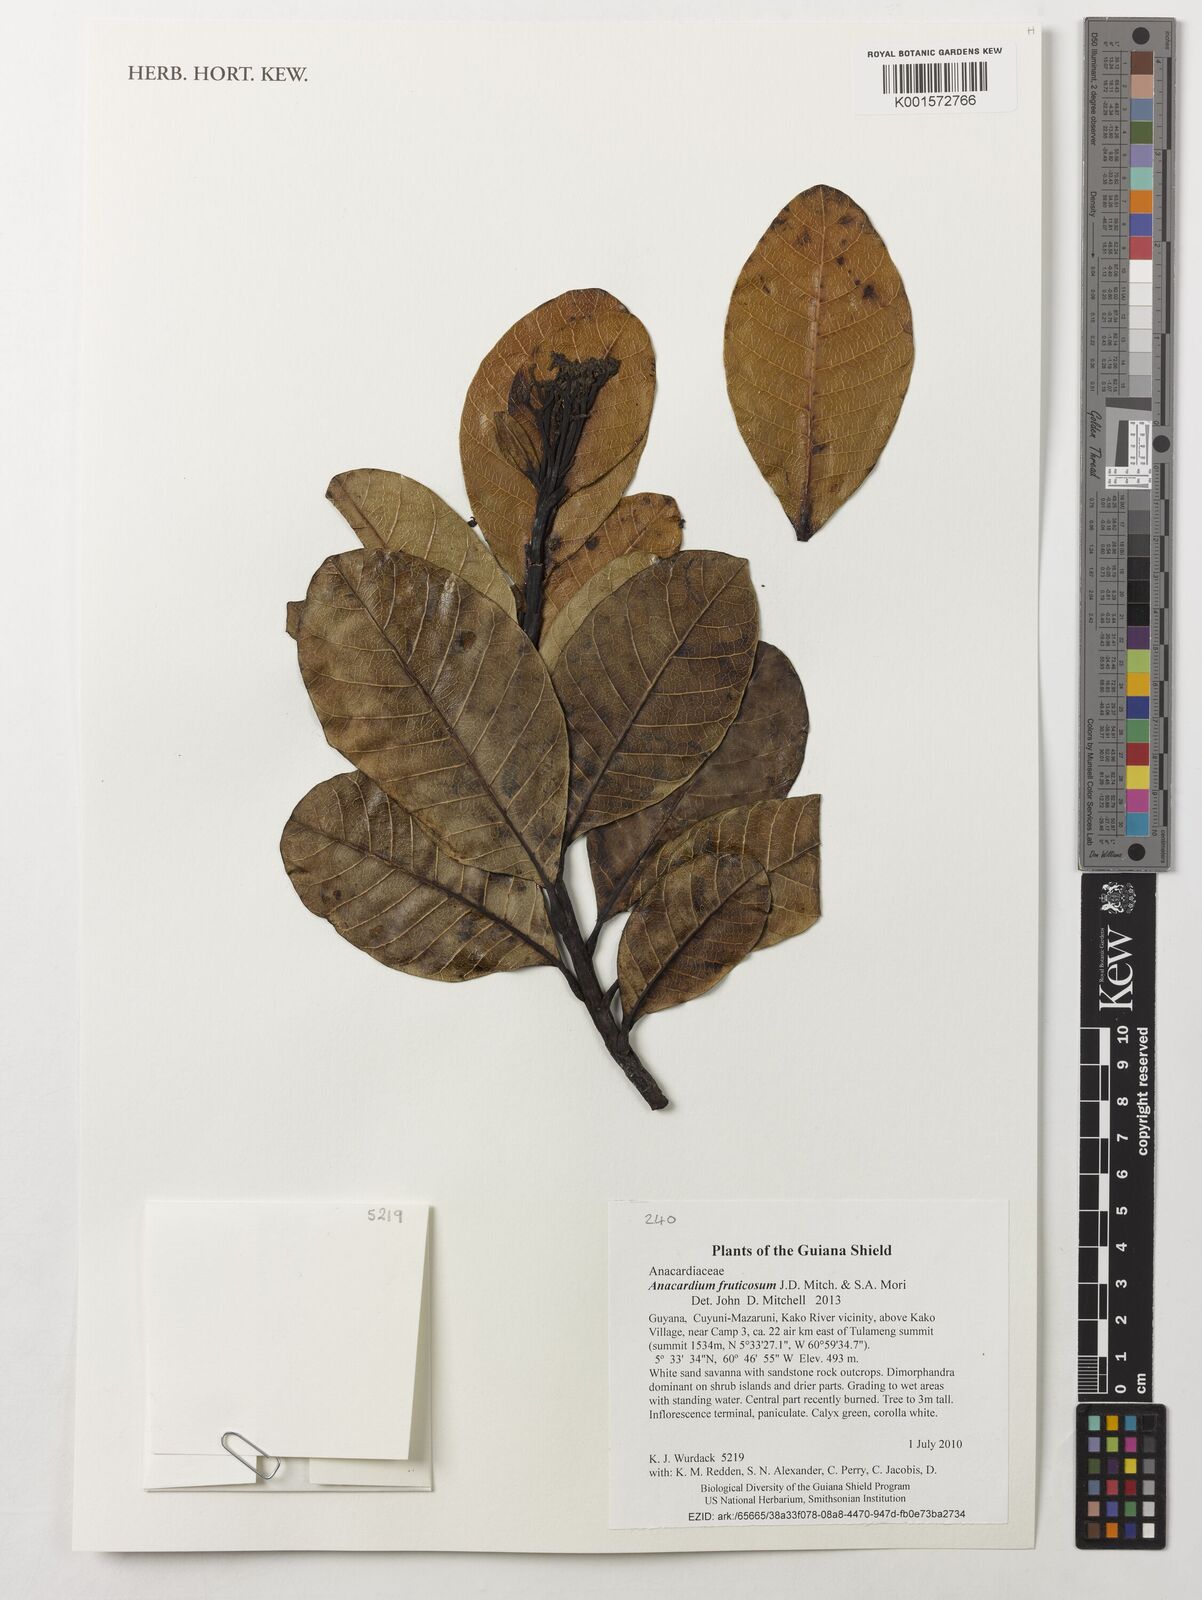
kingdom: Plantae
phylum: Tracheophyta
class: Magnoliopsida
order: Sapindales
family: Anacardiaceae
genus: Anacardium
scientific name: Anacardium fruticosum
